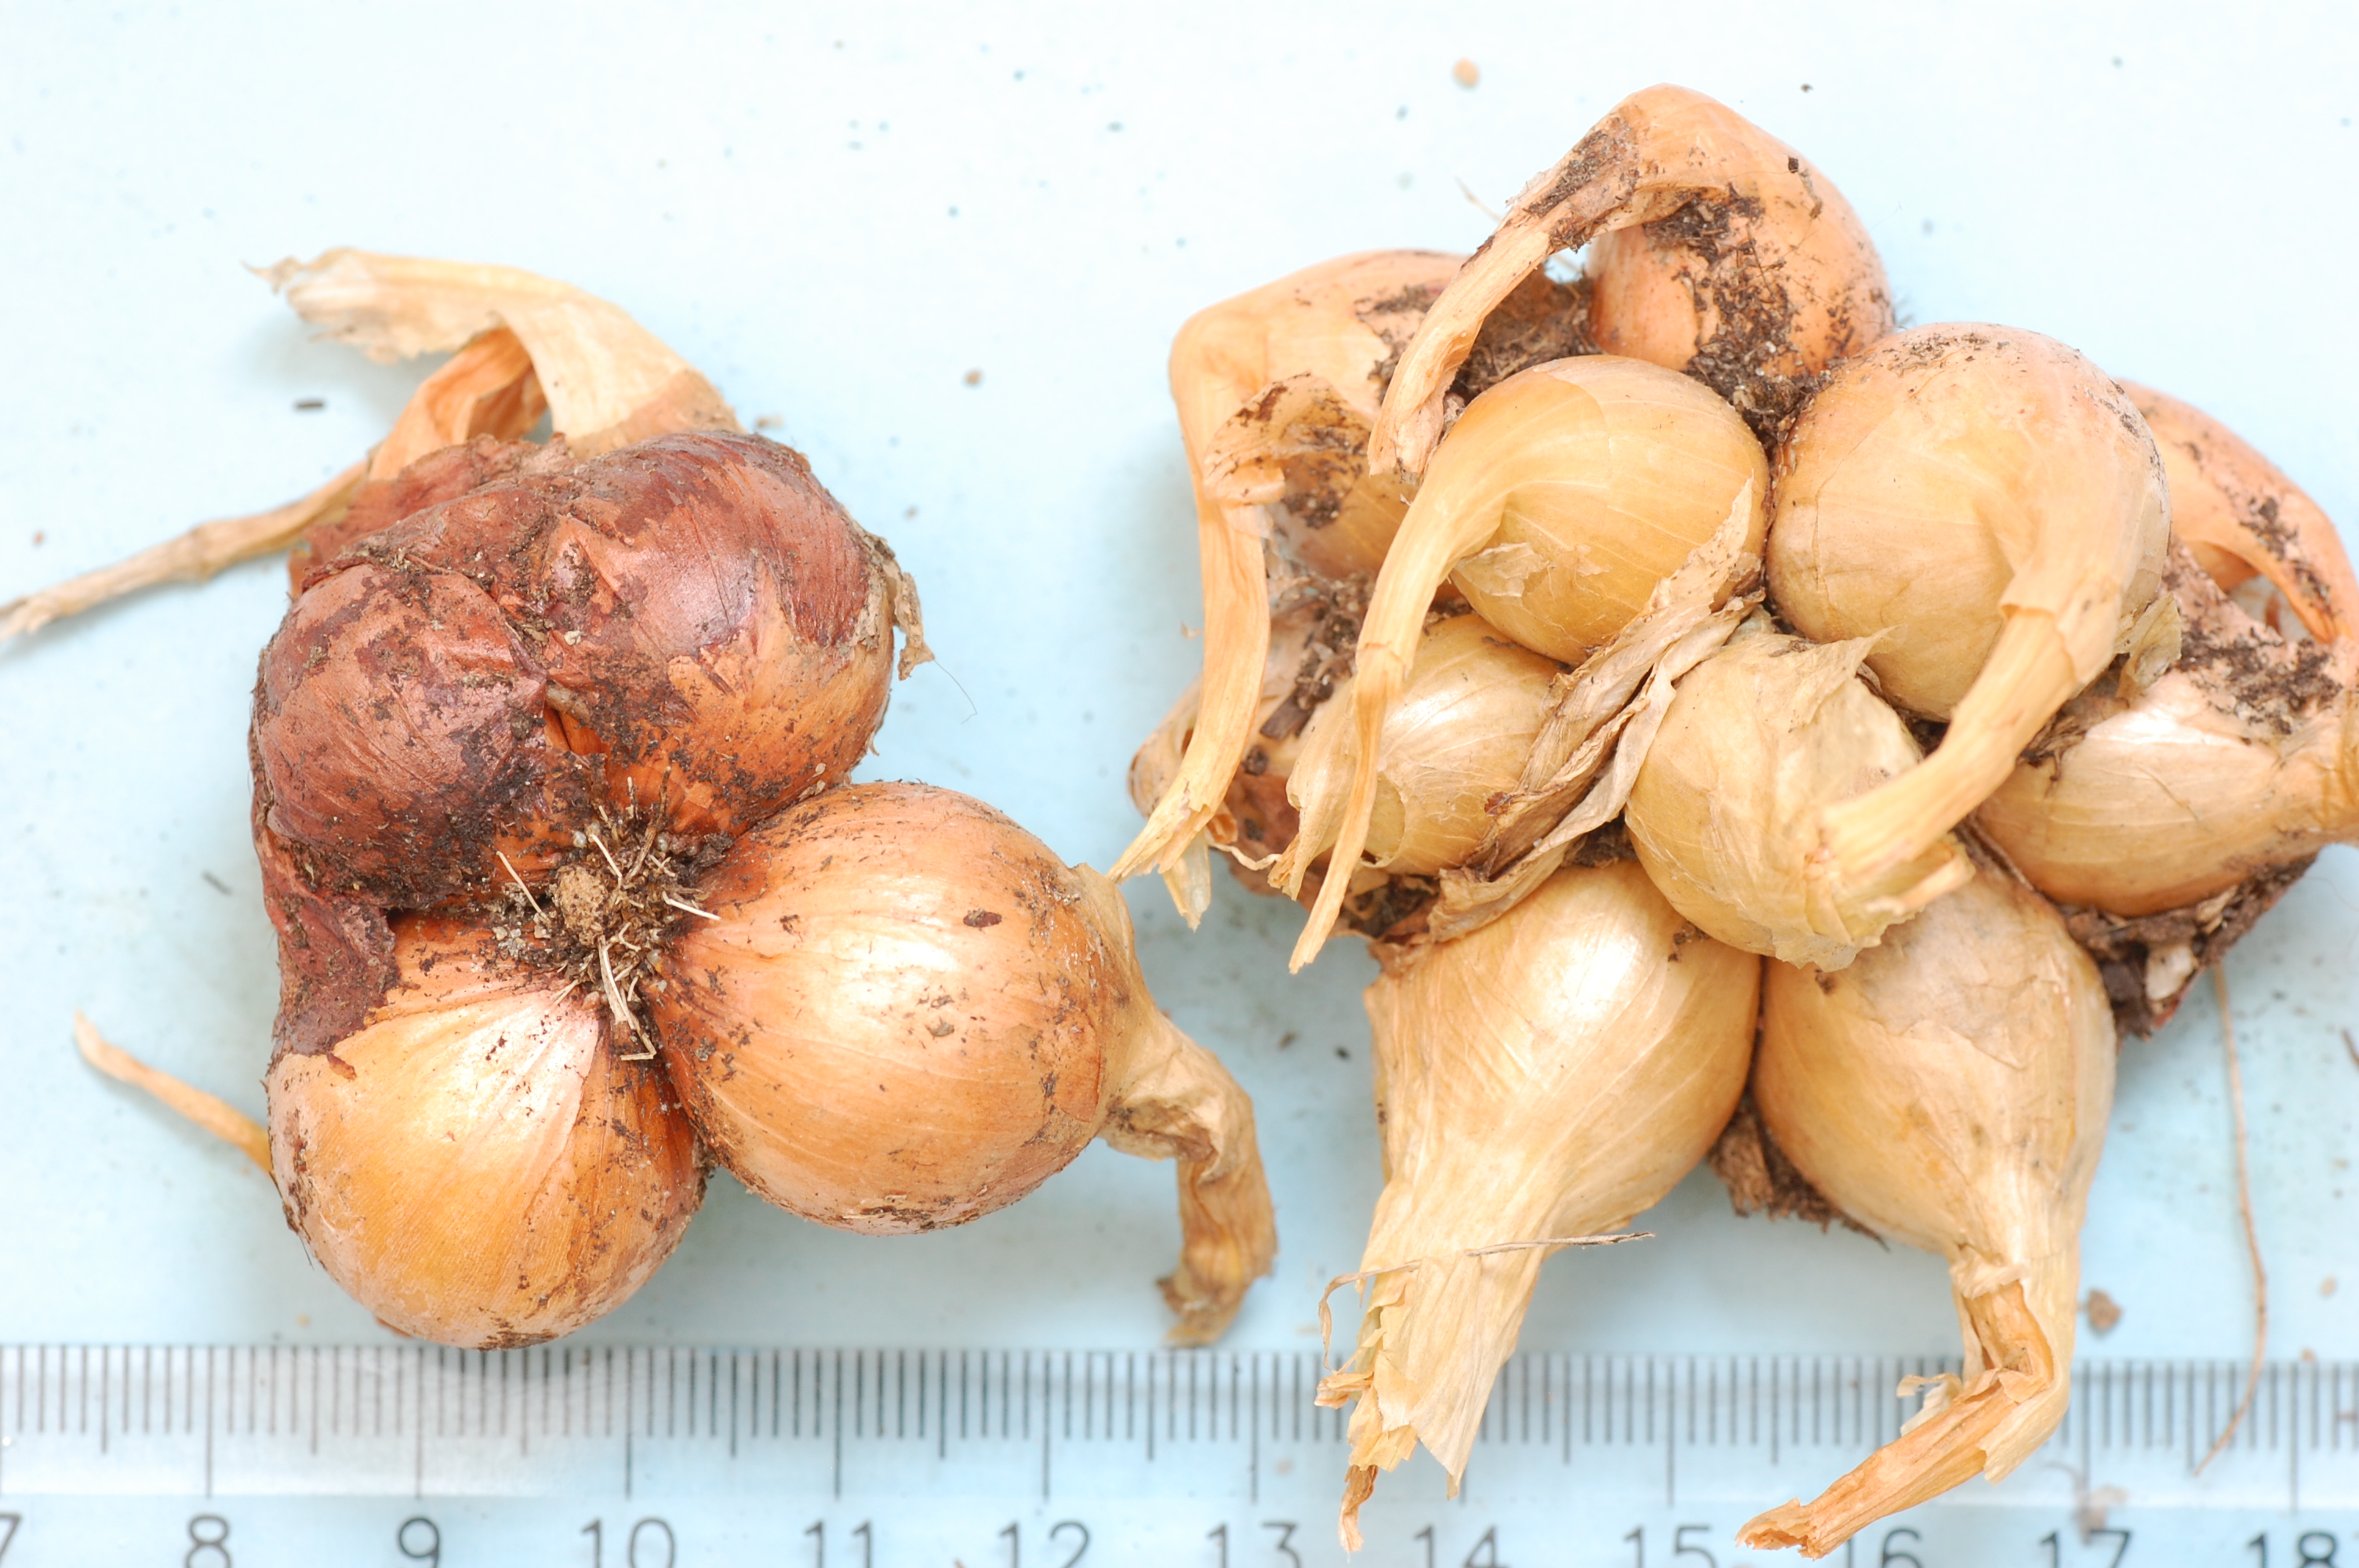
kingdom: Plantae
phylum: Tracheophyta
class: Liliopsida
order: Asparagales
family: Amaryllidaceae
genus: Allium
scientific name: Allium cepa
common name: Onion
